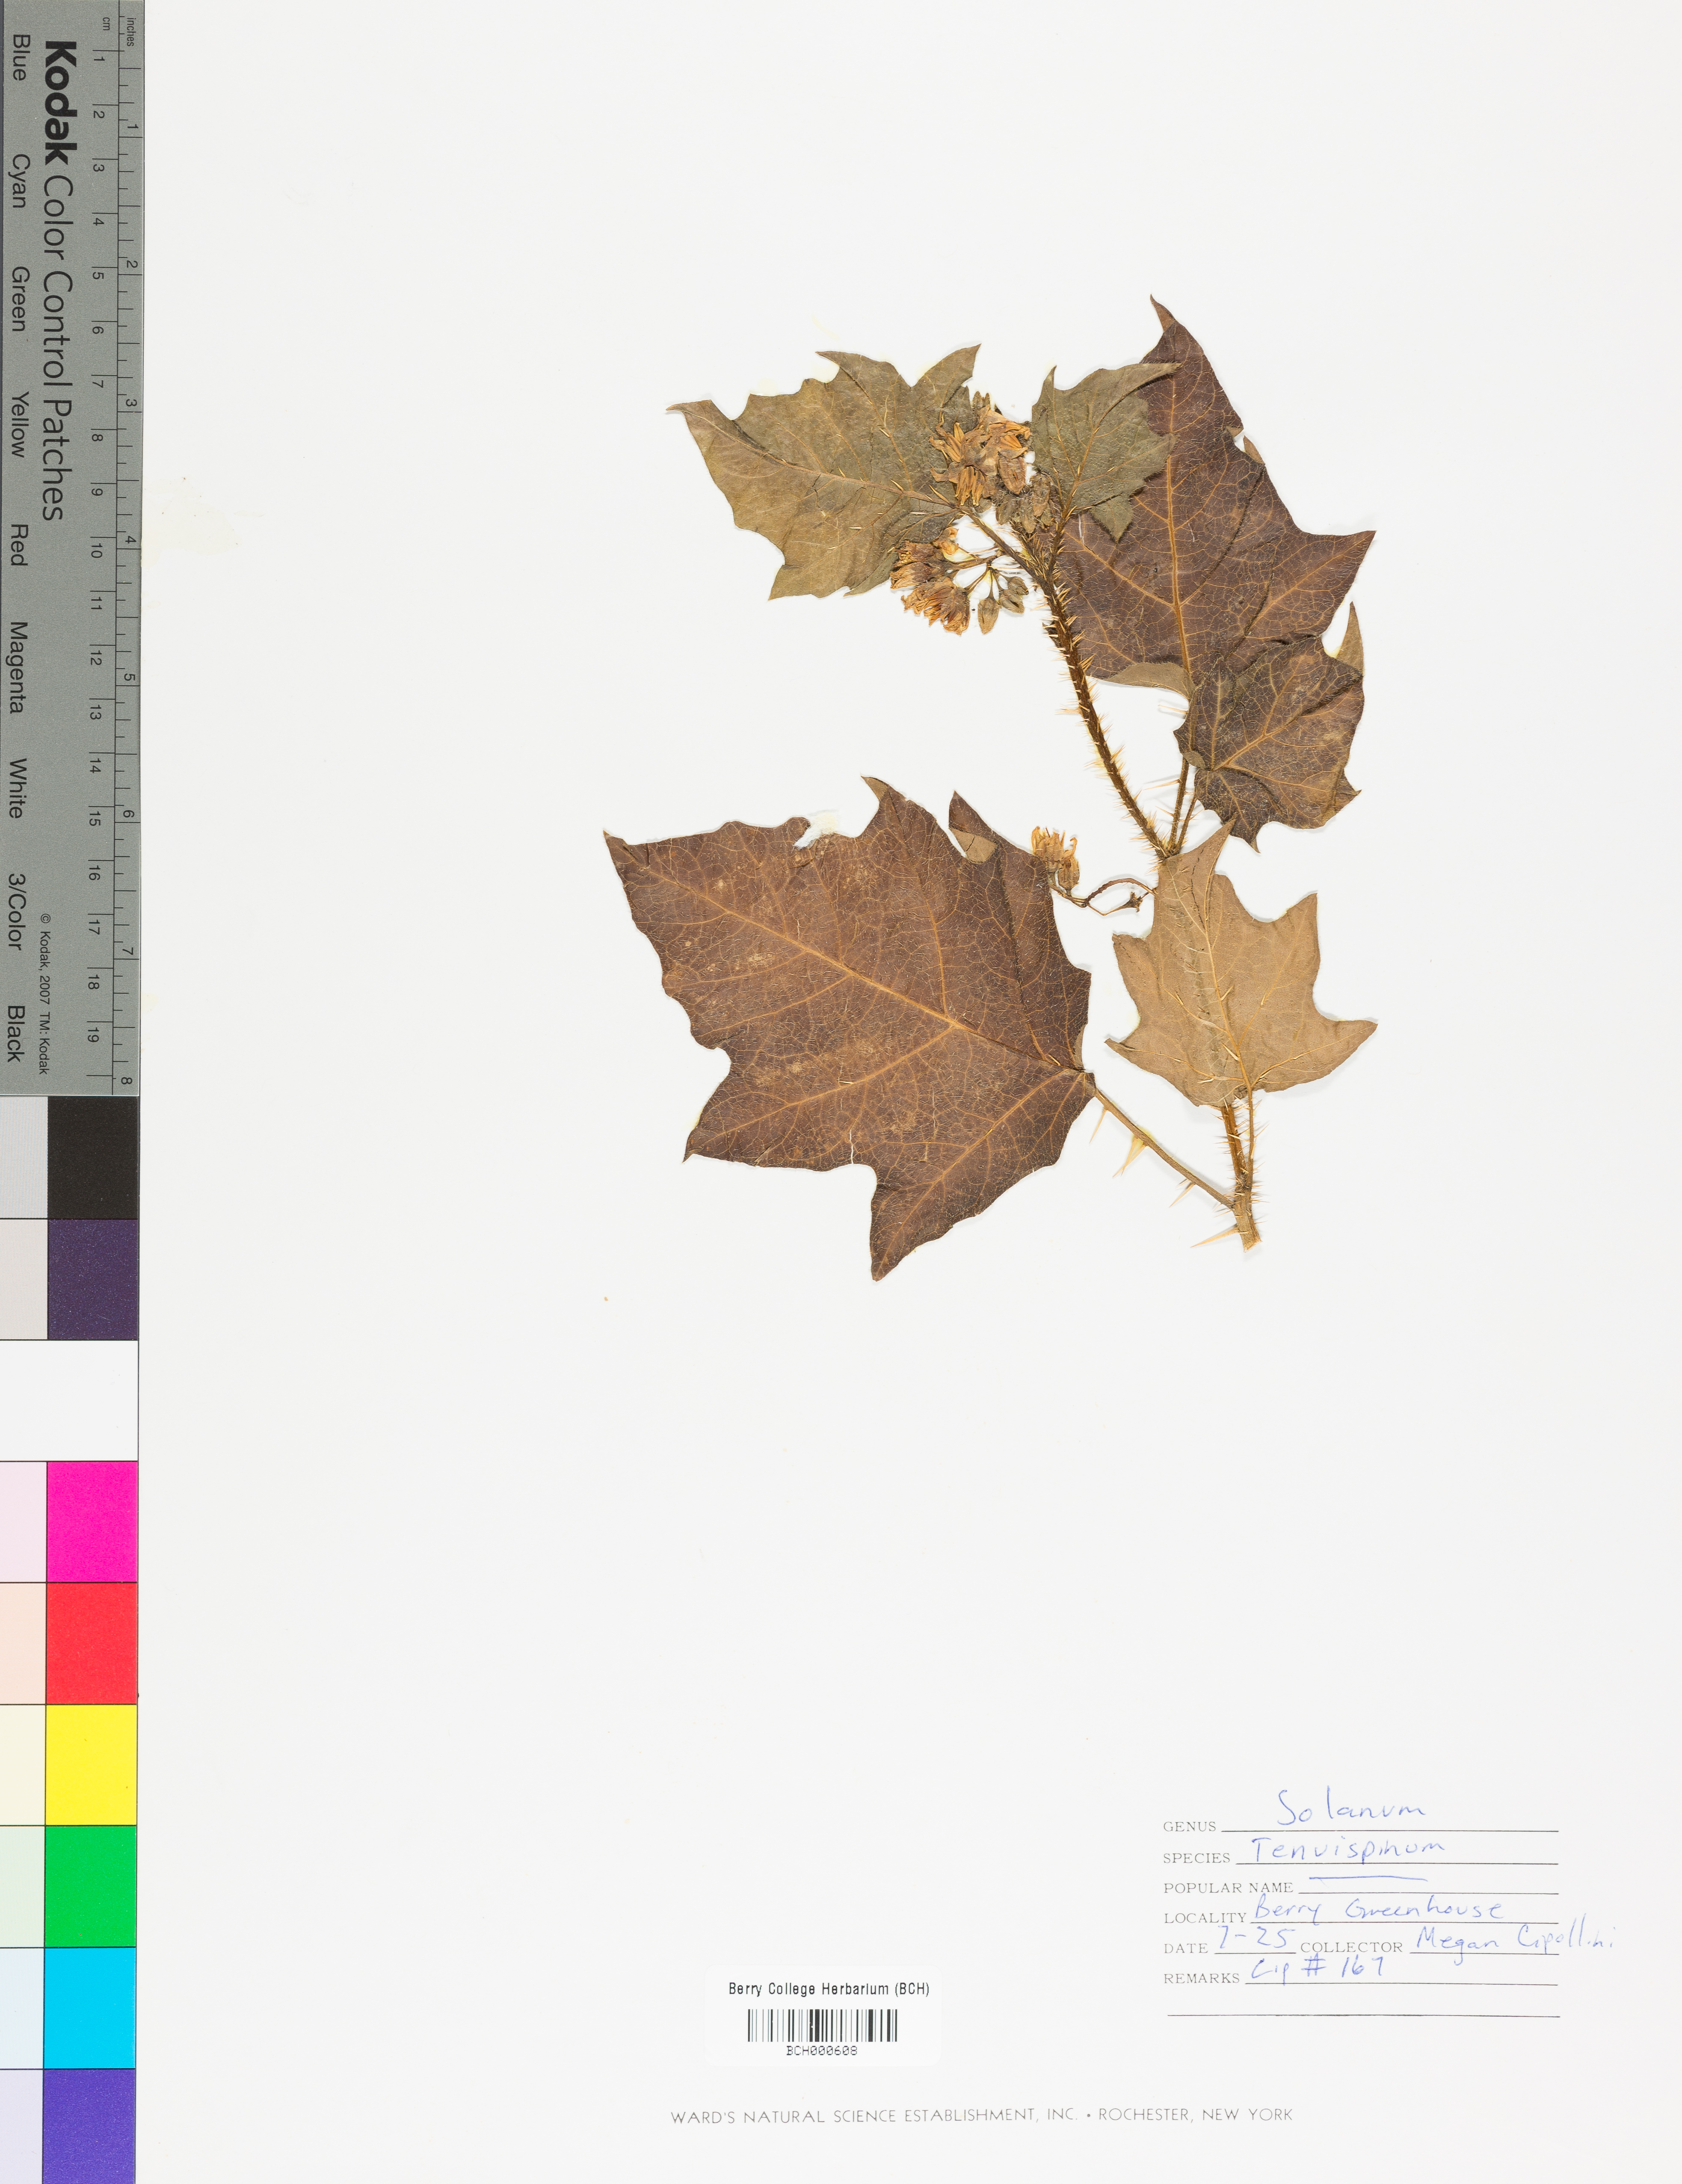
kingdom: Plantae
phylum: Tracheophyta
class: Magnoliopsida
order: Solanales
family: Solanaceae
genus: Solanum
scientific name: Solanum tenuispinum
